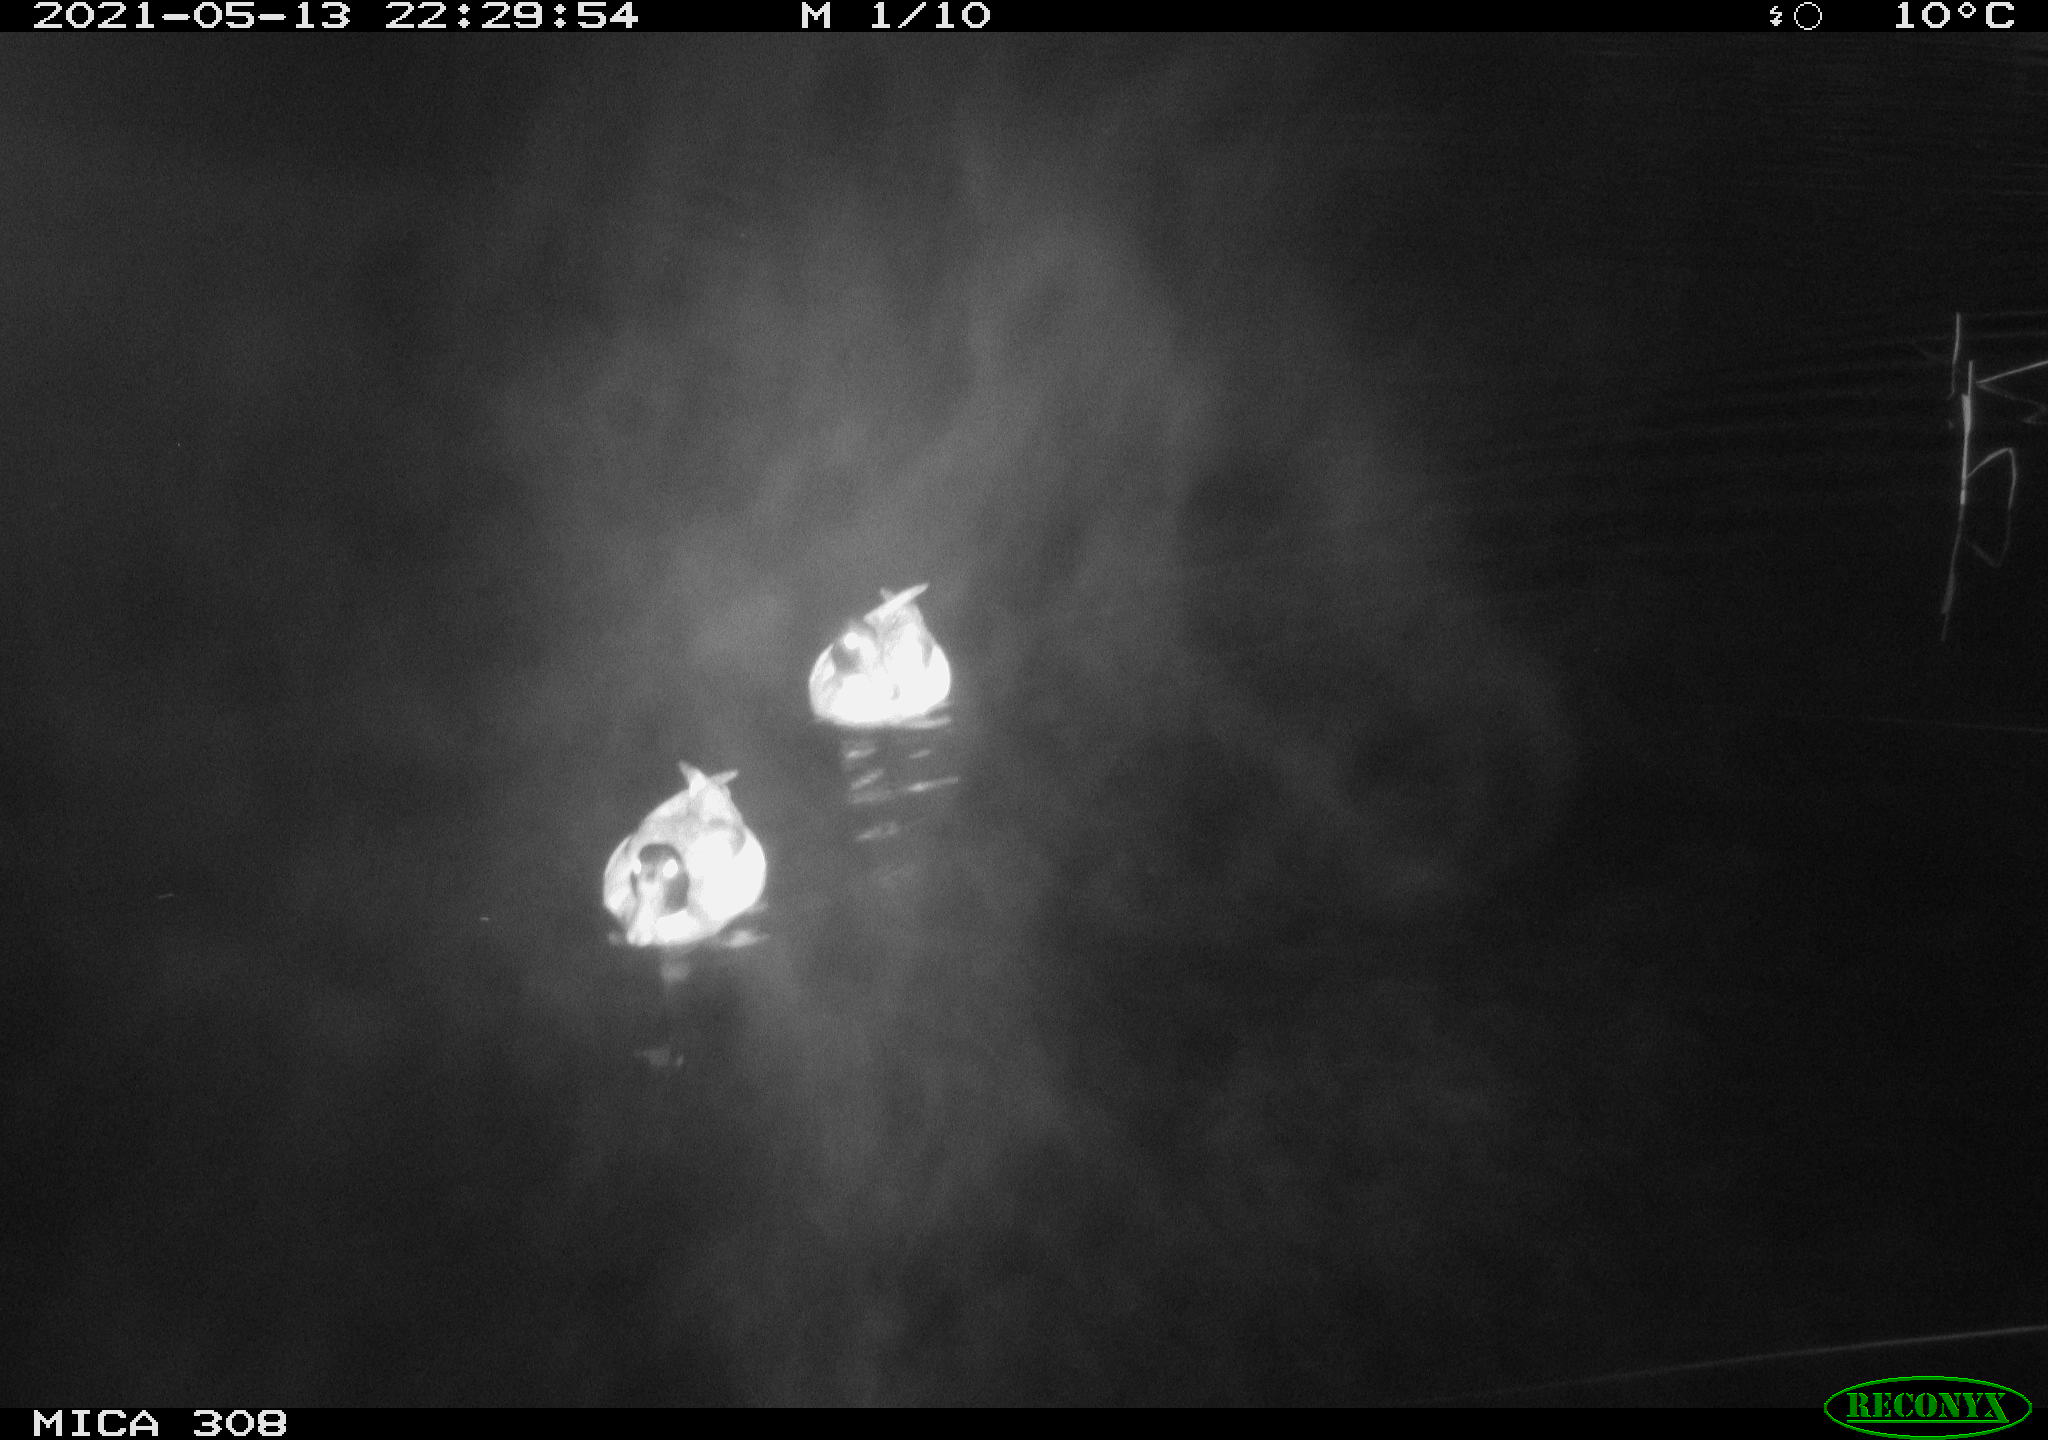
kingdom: Animalia
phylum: Chordata
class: Aves
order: Anseriformes
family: Anatidae
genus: Anas
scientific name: Anas platyrhynchos
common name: Mallard
